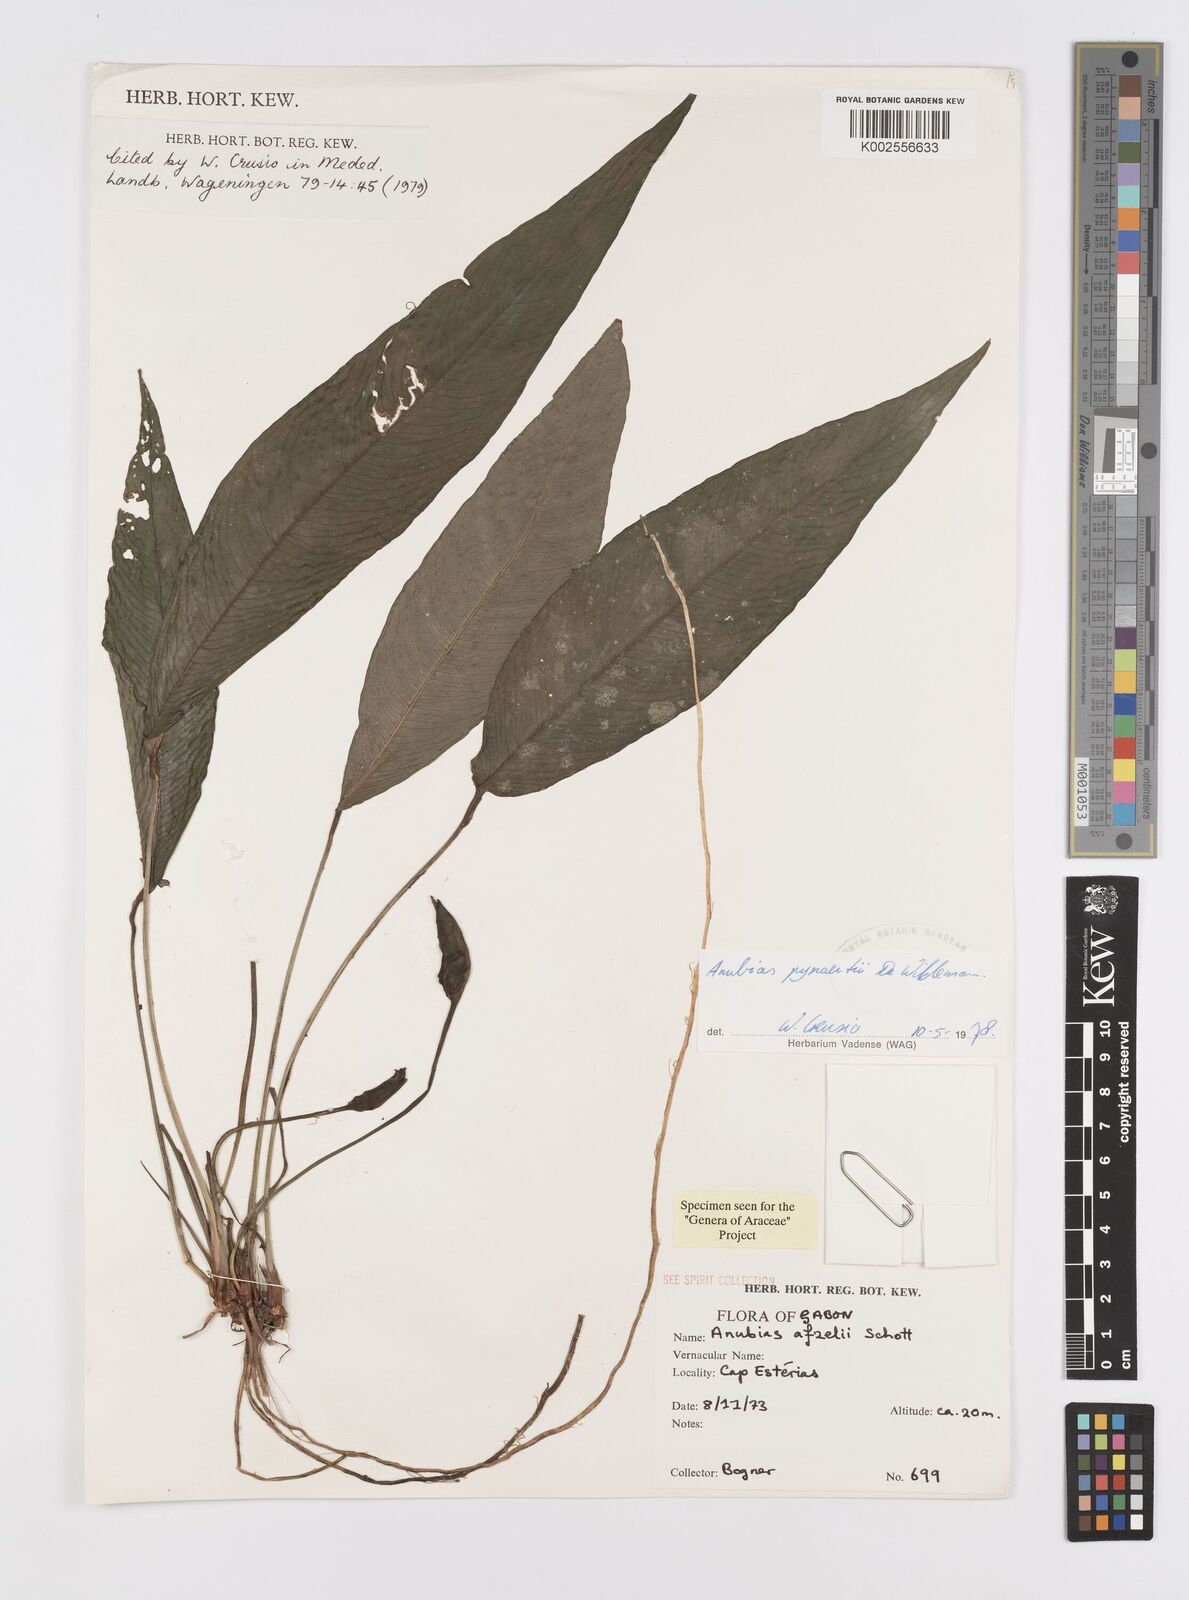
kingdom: Plantae
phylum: Tracheophyta
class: Liliopsida
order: Alismatales
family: Araceae
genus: Anubias
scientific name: Anubias pynaertii
